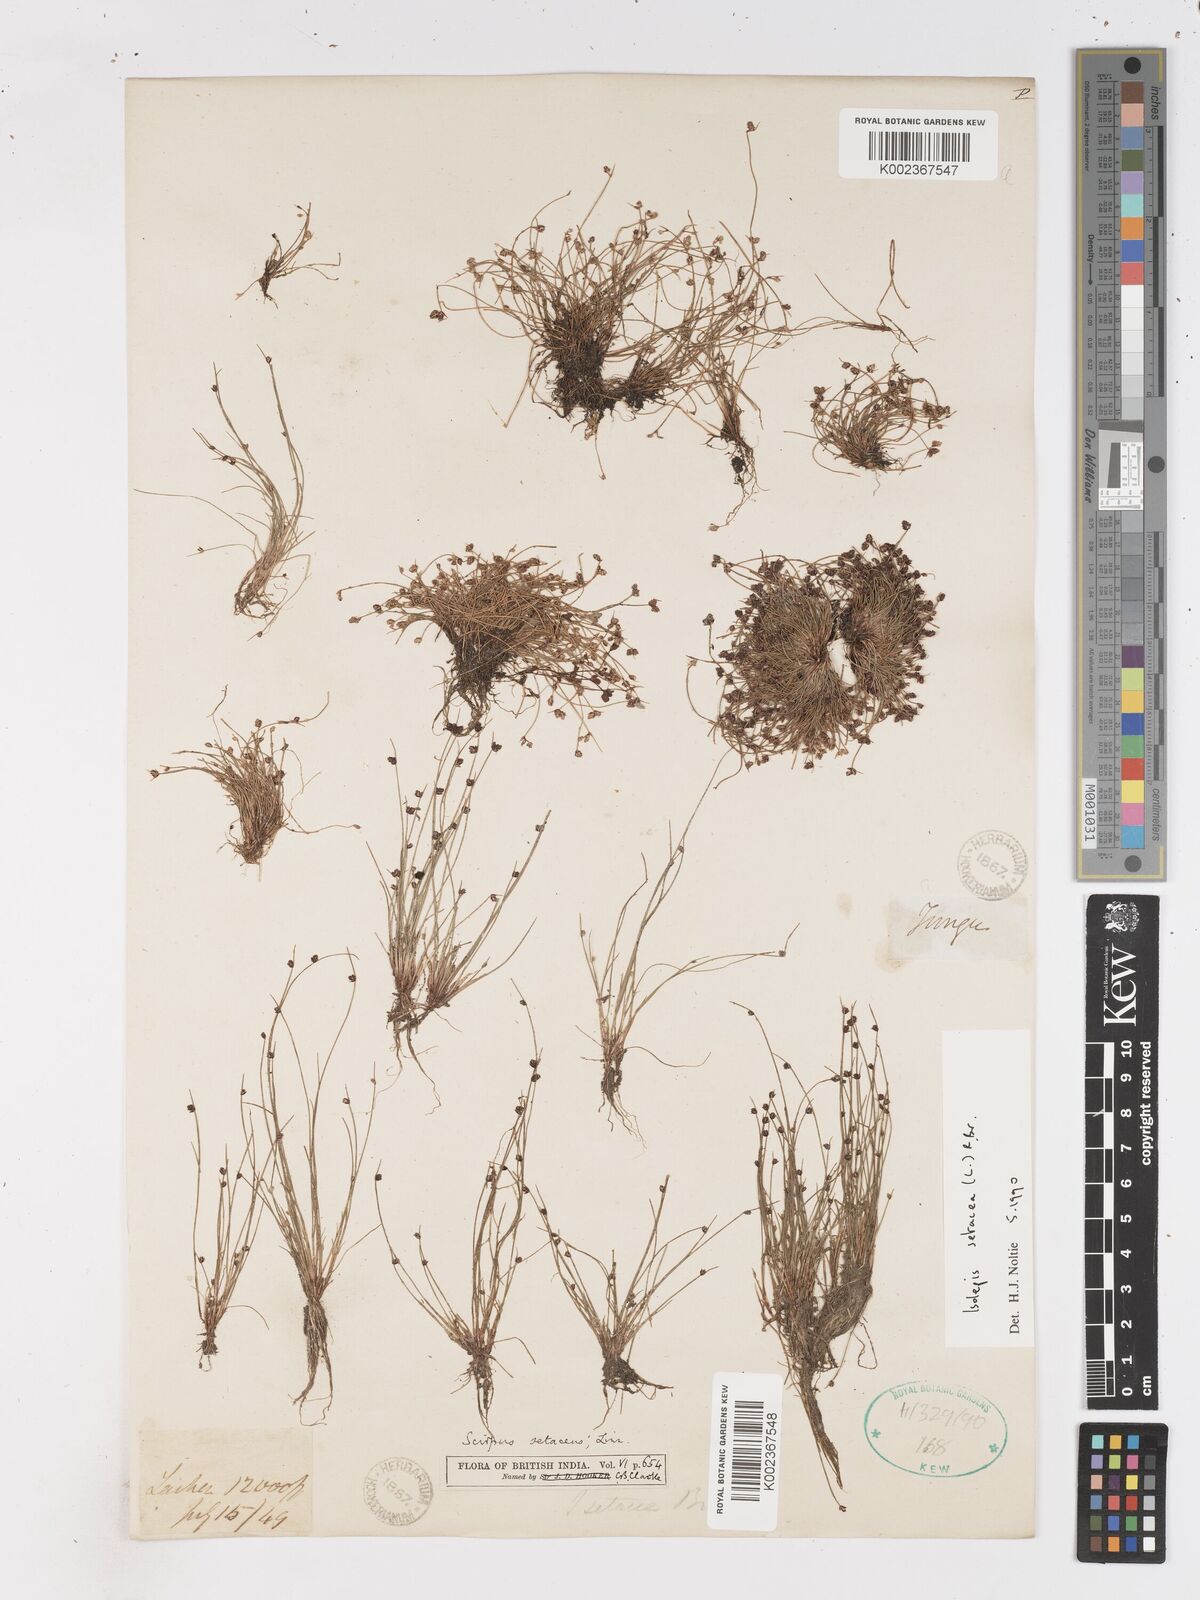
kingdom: Plantae
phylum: Tracheophyta
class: Liliopsida
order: Poales
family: Cyperaceae
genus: Isolepis
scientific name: Isolepis setacea
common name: Bristle club-rush
